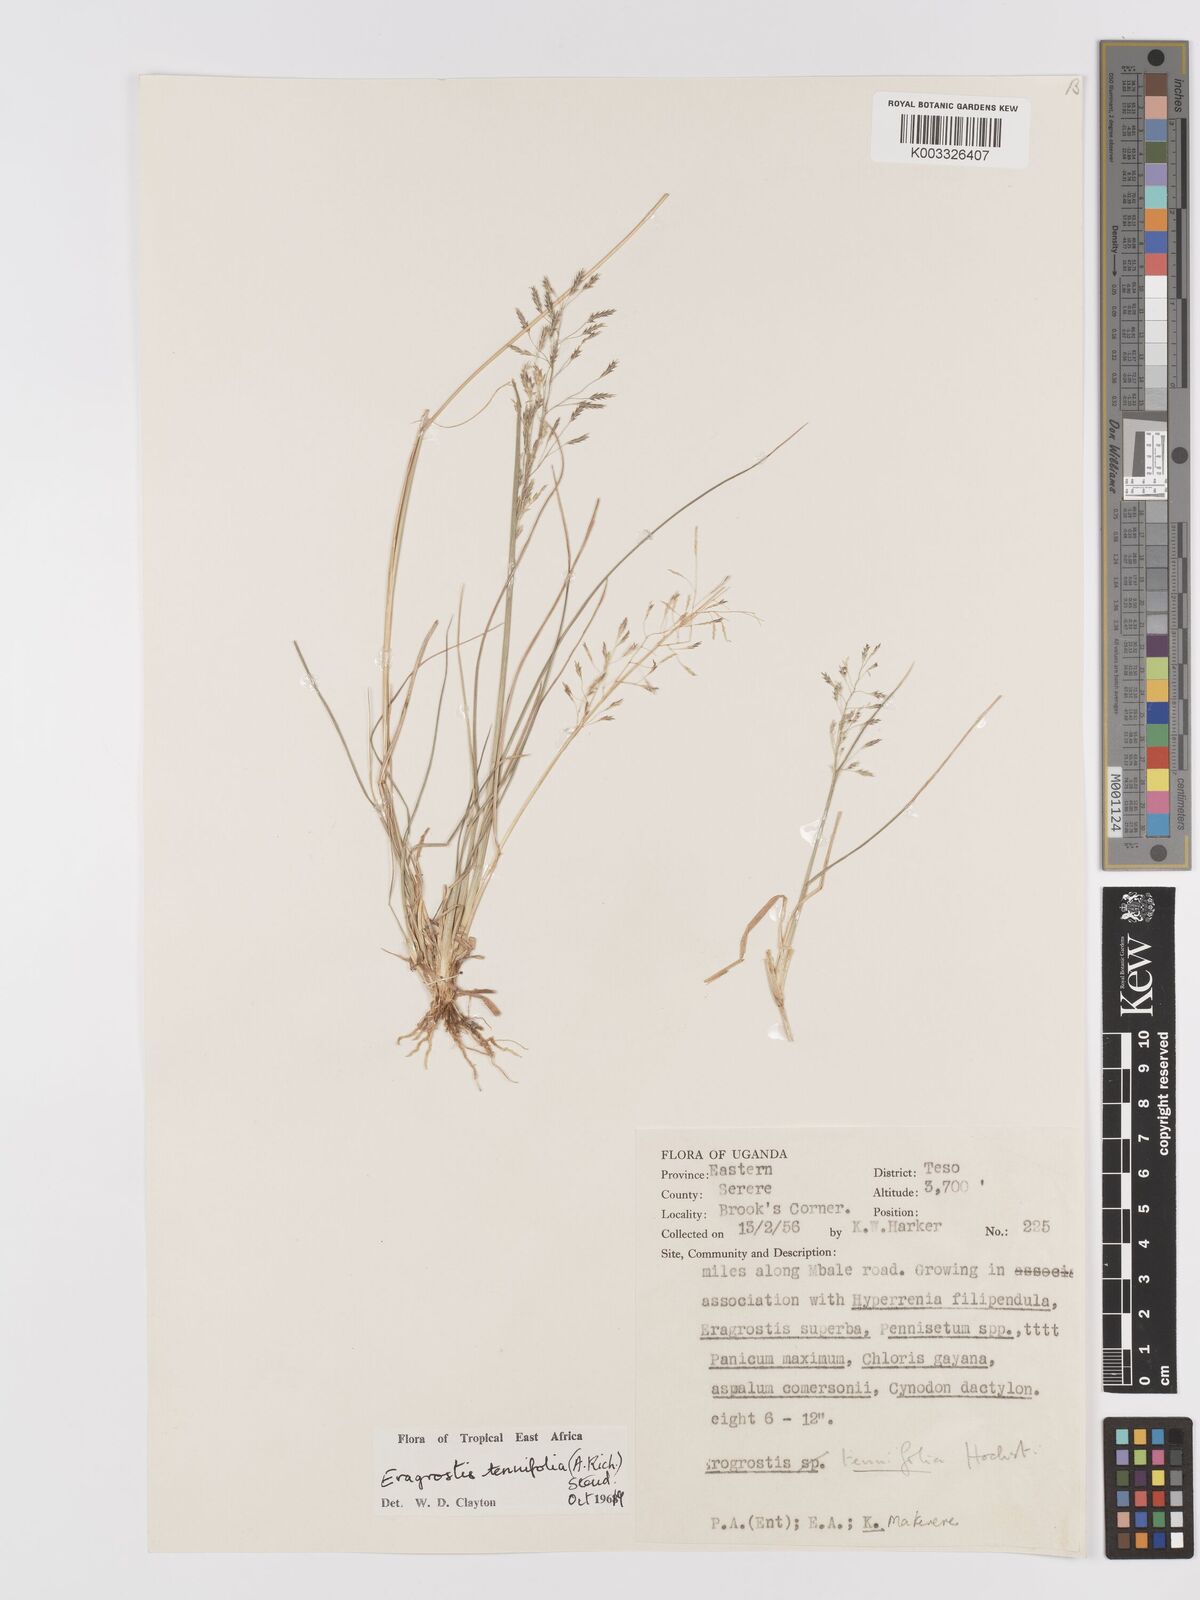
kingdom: Plantae
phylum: Tracheophyta
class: Liliopsida
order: Poales
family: Poaceae
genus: Eragrostis
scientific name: Eragrostis tenuifolia
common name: Elastic grass
